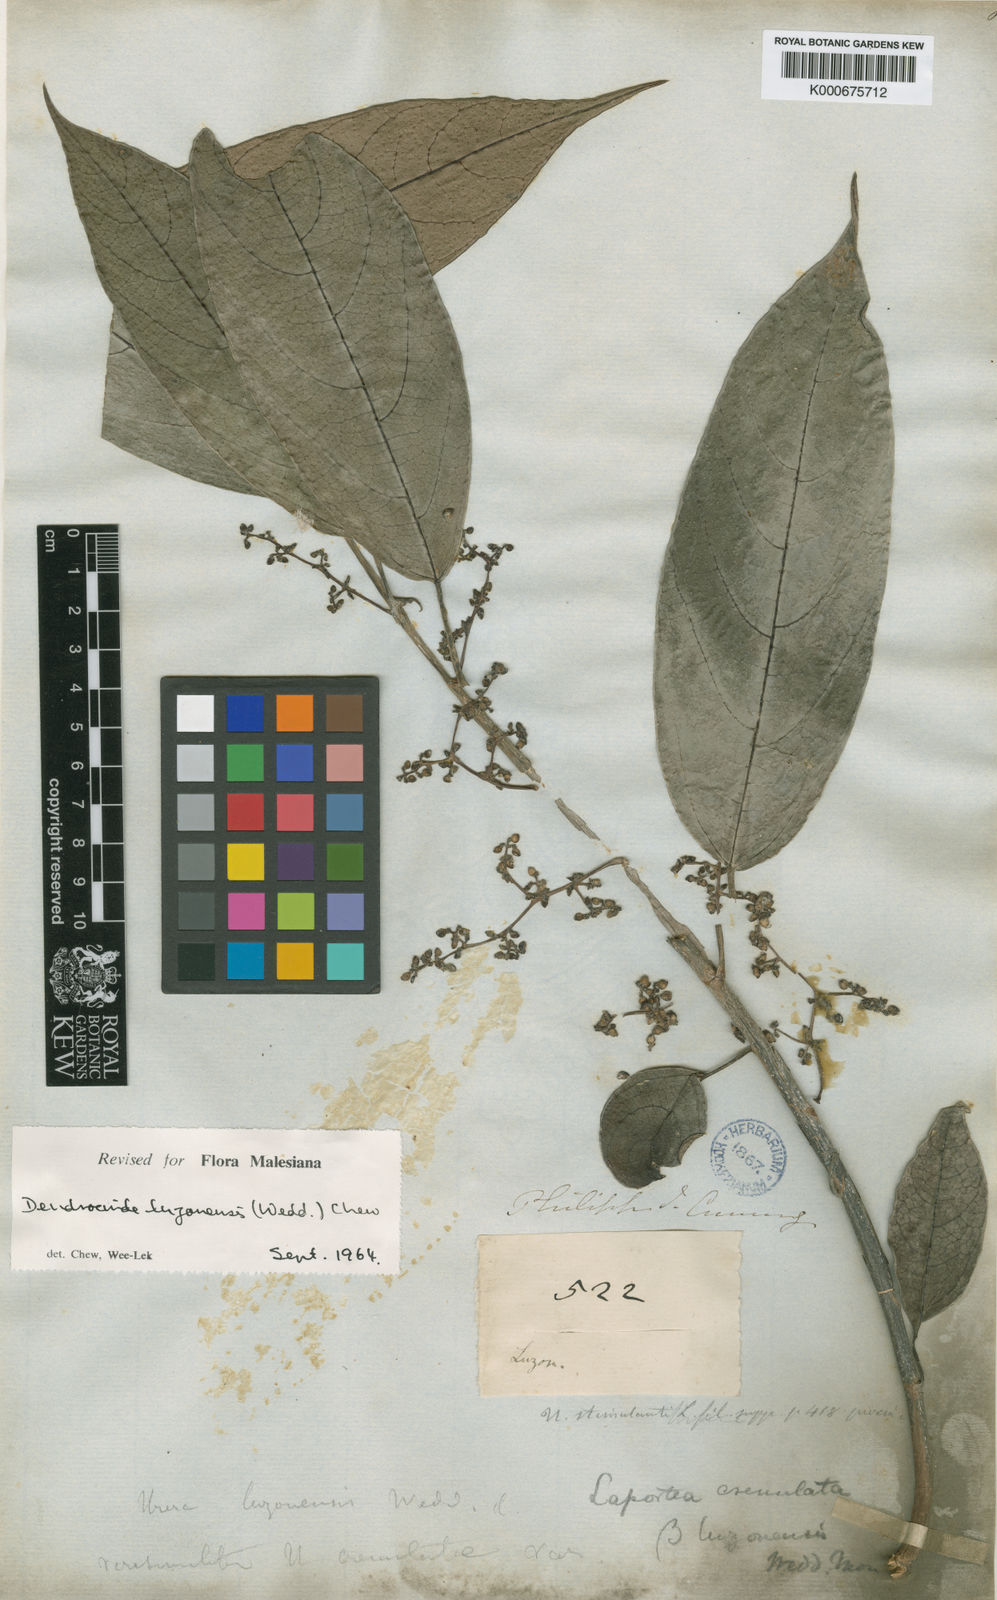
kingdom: Plantae
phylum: Tracheophyta
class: Magnoliopsida
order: Rosales
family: Urticaceae
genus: Dendrocnide
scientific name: Dendrocnide luzonensis
